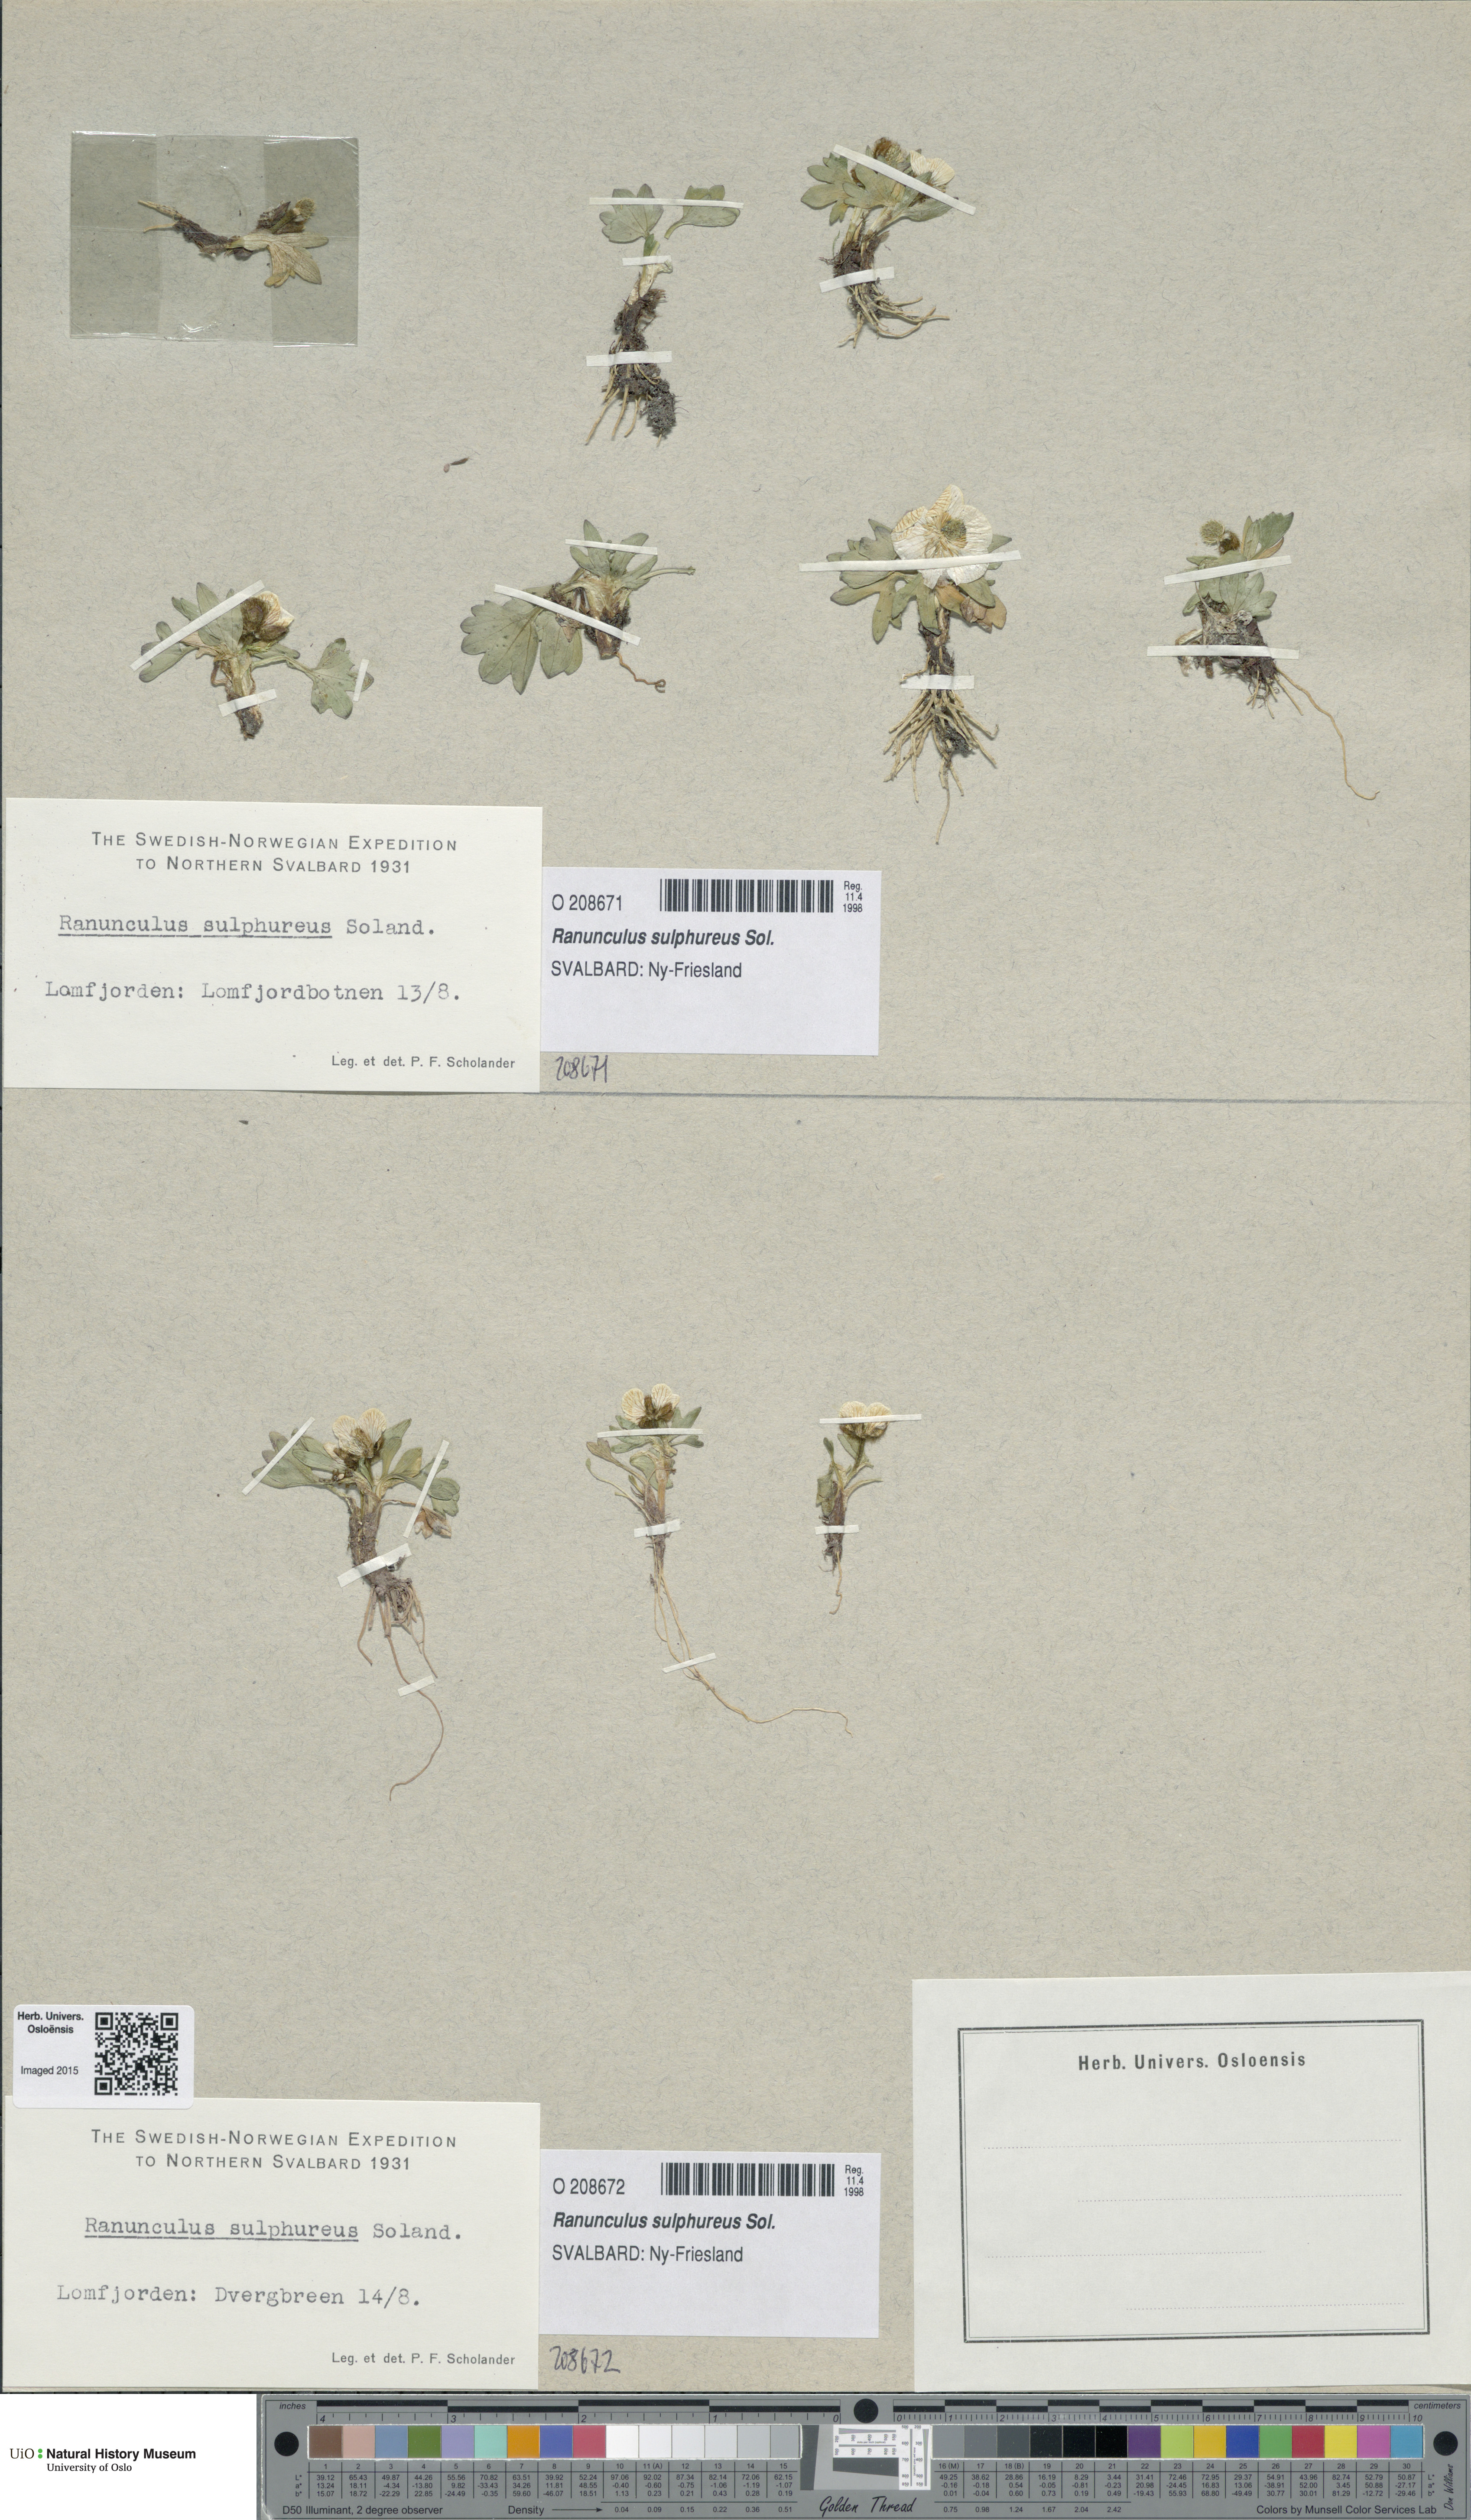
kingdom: Plantae
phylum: Tracheophyta
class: Magnoliopsida
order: Ranunculales
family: Ranunculaceae
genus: Ranunculus
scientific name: Ranunculus sulphureus
